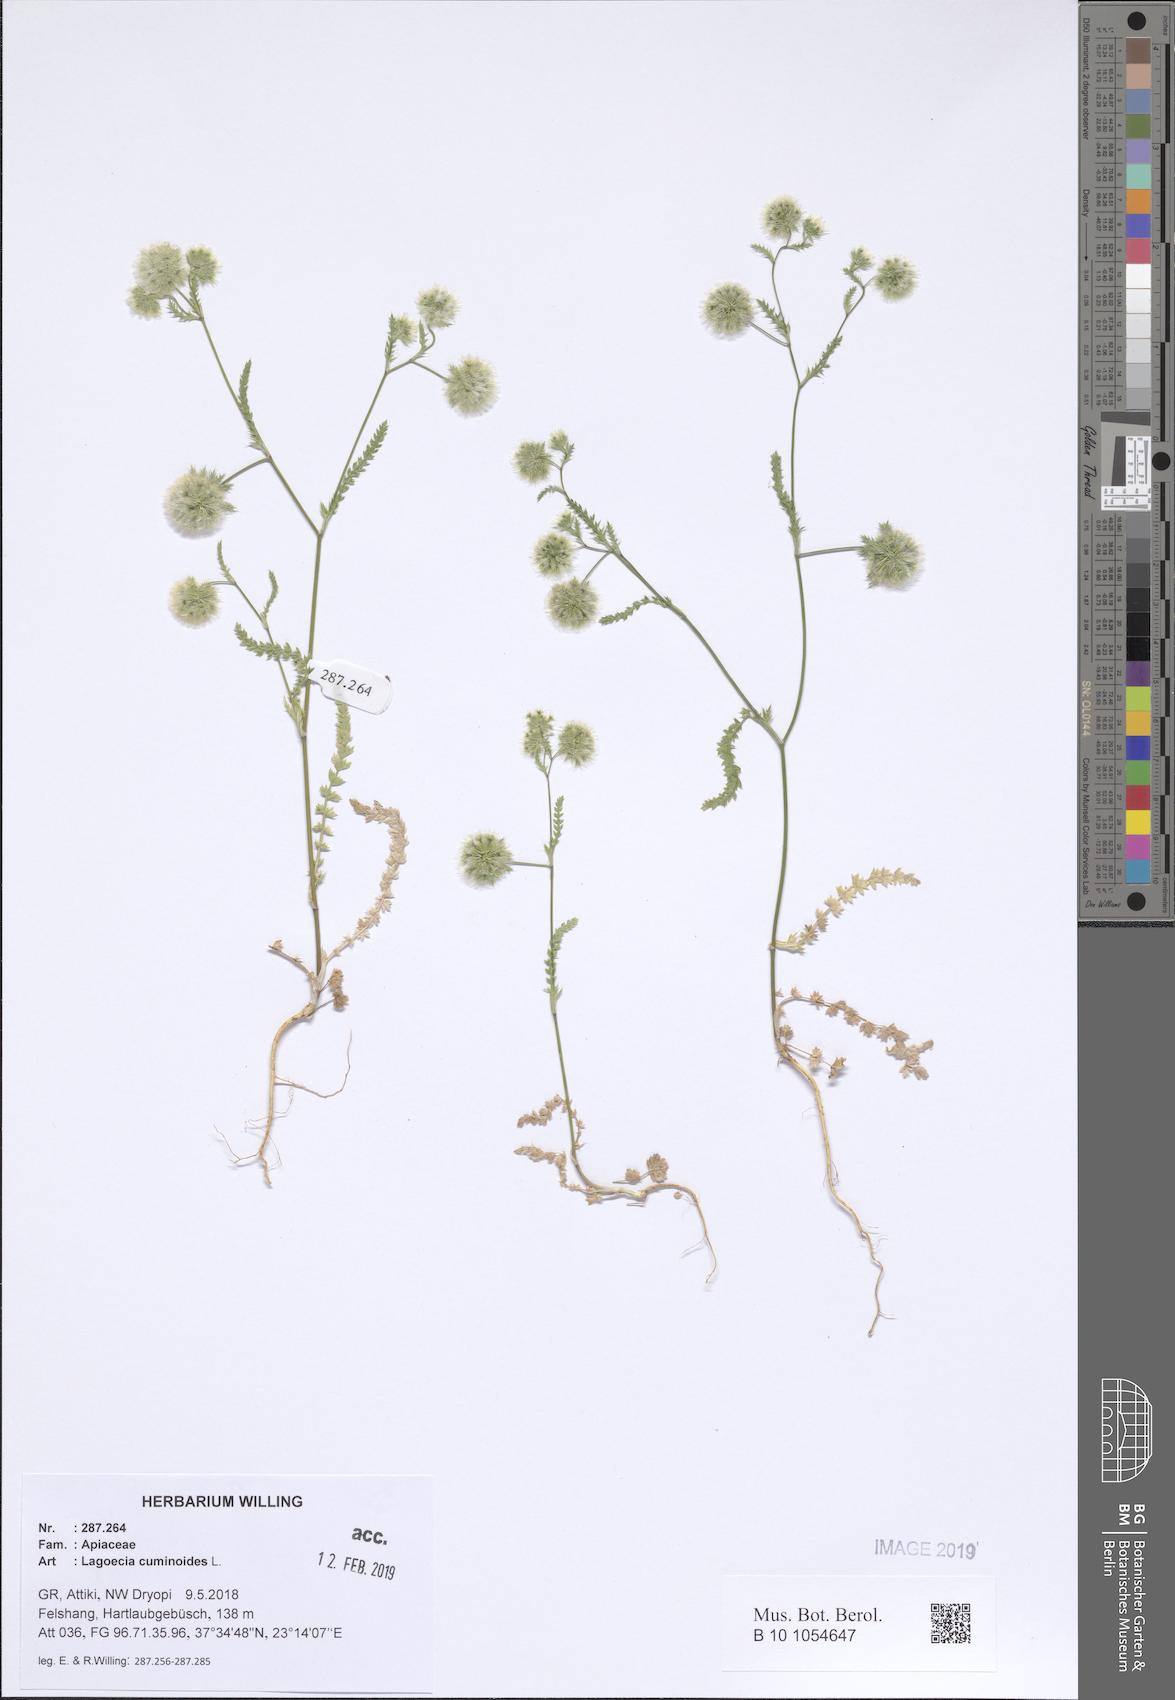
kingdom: Plantae
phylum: Tracheophyta
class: Magnoliopsida
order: Apiales
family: Apiaceae
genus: Lagoecia
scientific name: Lagoecia cuminoides
